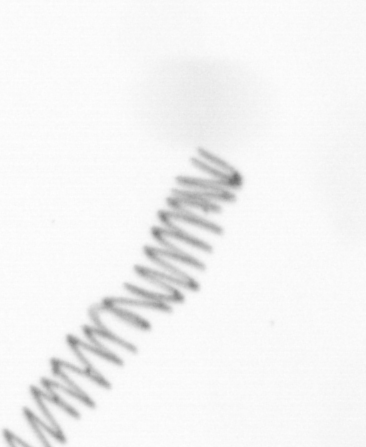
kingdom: Chromista
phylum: Ochrophyta
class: Bacillariophyceae
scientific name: Bacillariophyceae
